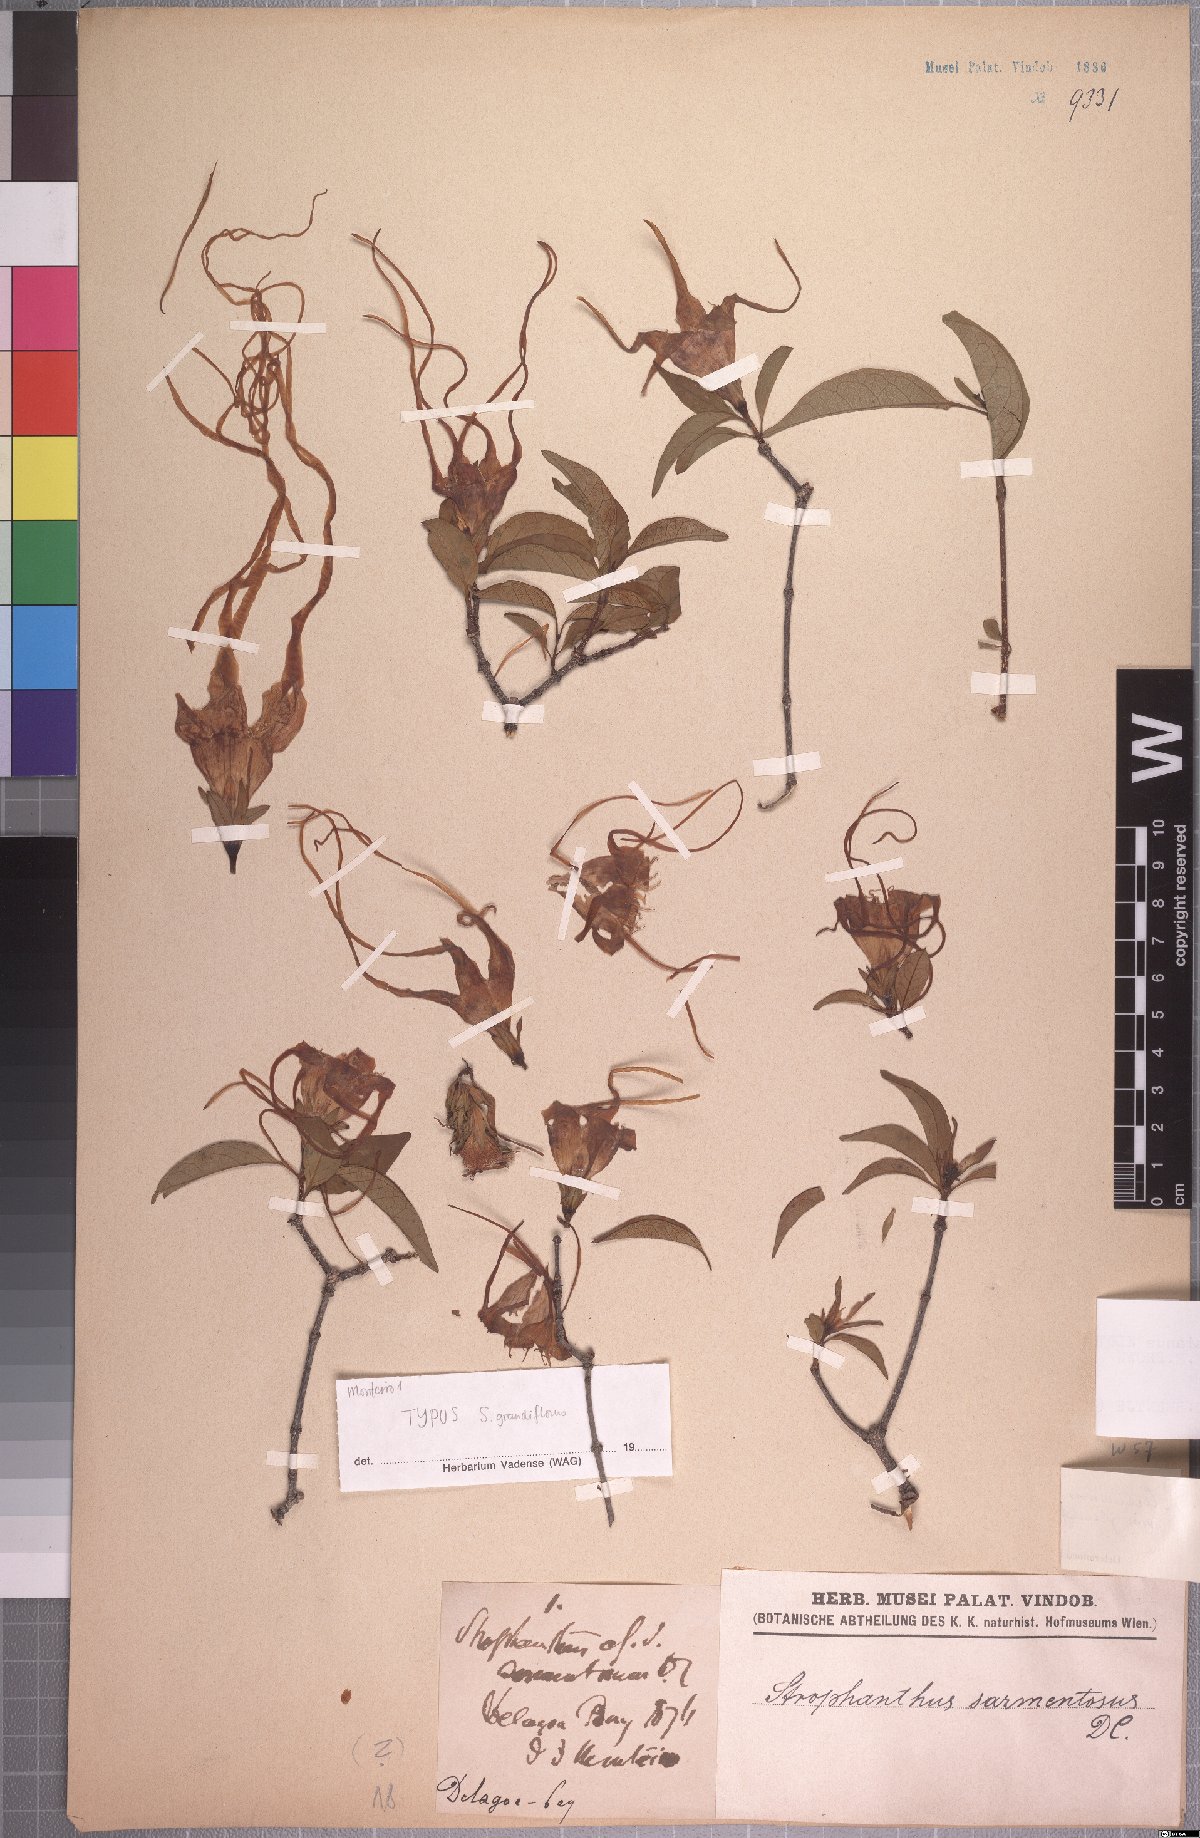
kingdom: Plantae
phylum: Tracheophyta
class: Magnoliopsida
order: Gentianales
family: Apocynaceae
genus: Strophanthus
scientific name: Strophanthus petersianus
